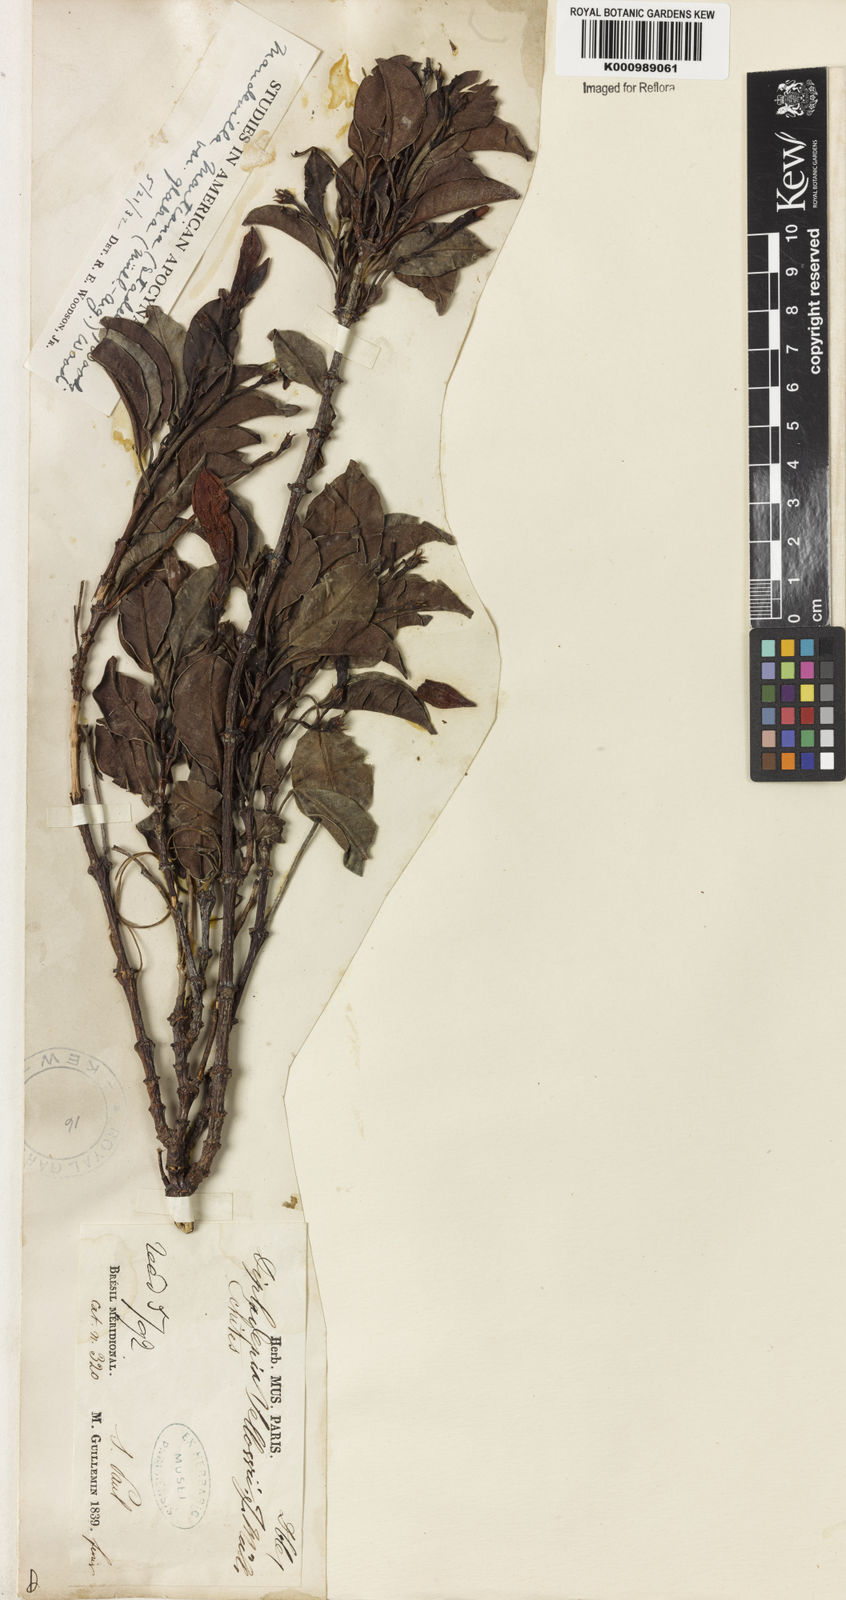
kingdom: Plantae
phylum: Tracheophyta
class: Magnoliopsida
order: Gentianales
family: Apocynaceae
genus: Mandevilla
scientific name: Mandevilla martiana
